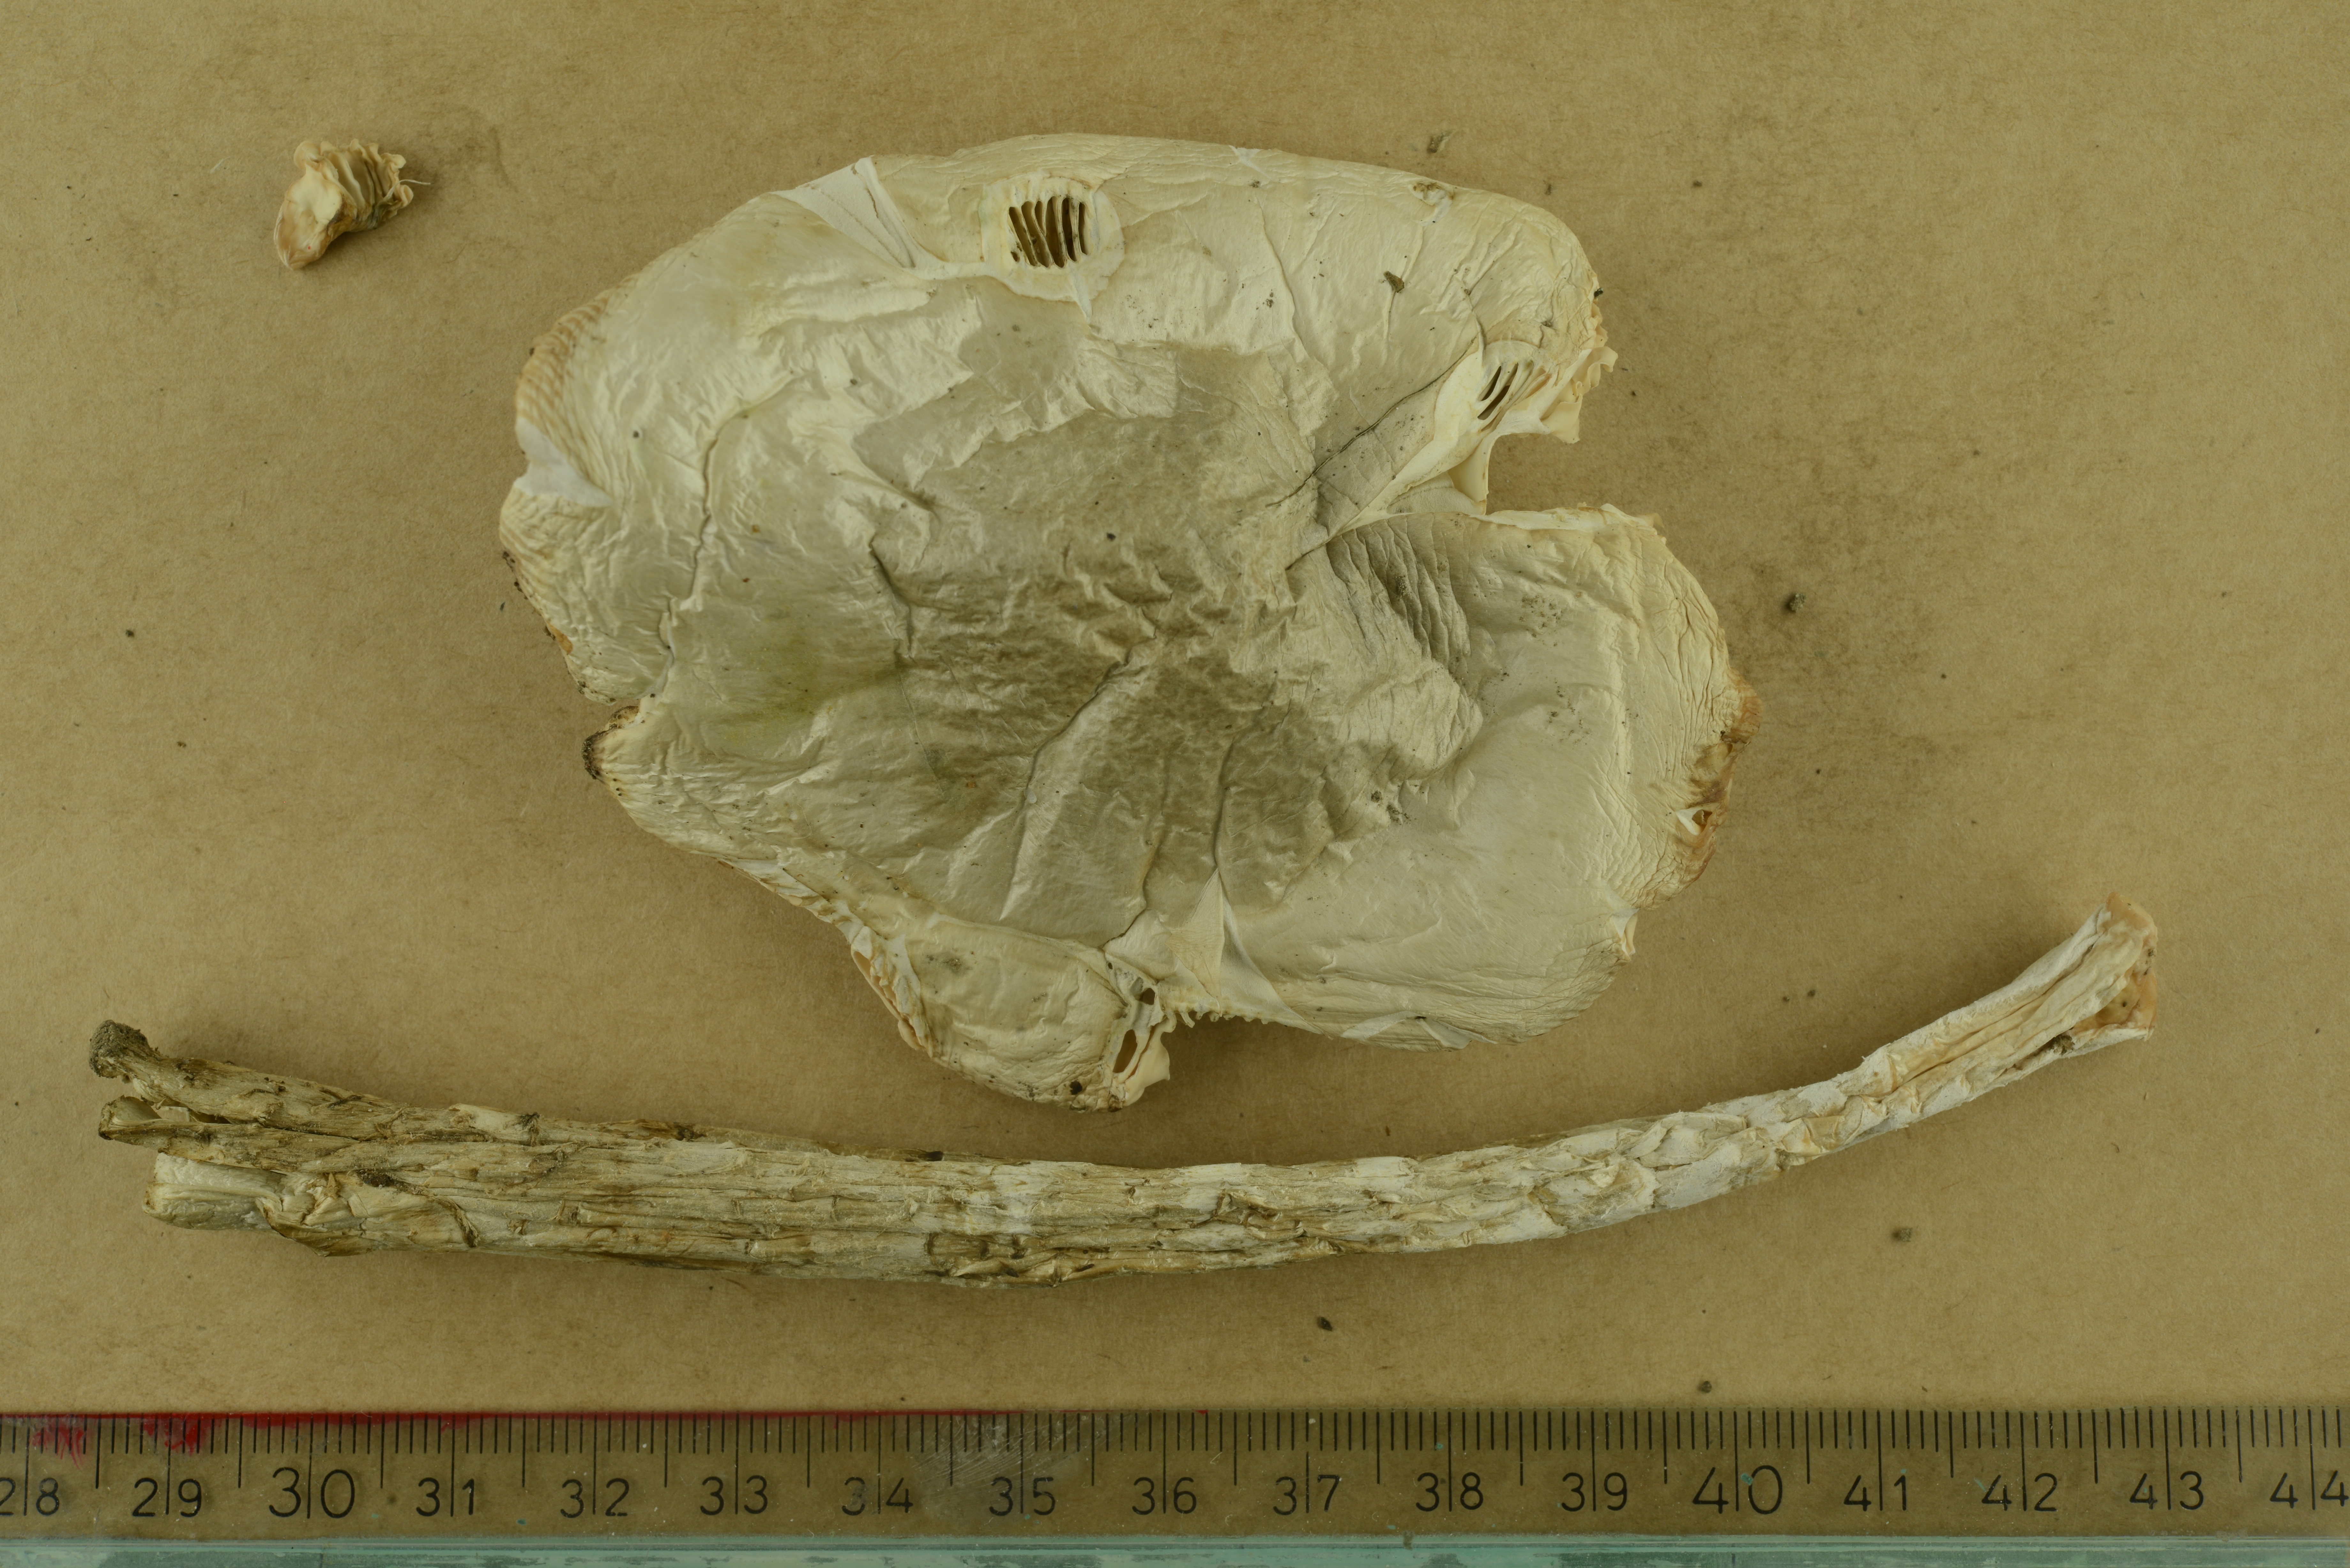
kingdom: Fungi
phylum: Basidiomycota
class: Agaricomycetes
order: Agaricales
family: Amanitaceae
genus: Amanita
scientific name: Amanita vaginata
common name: Grisette
